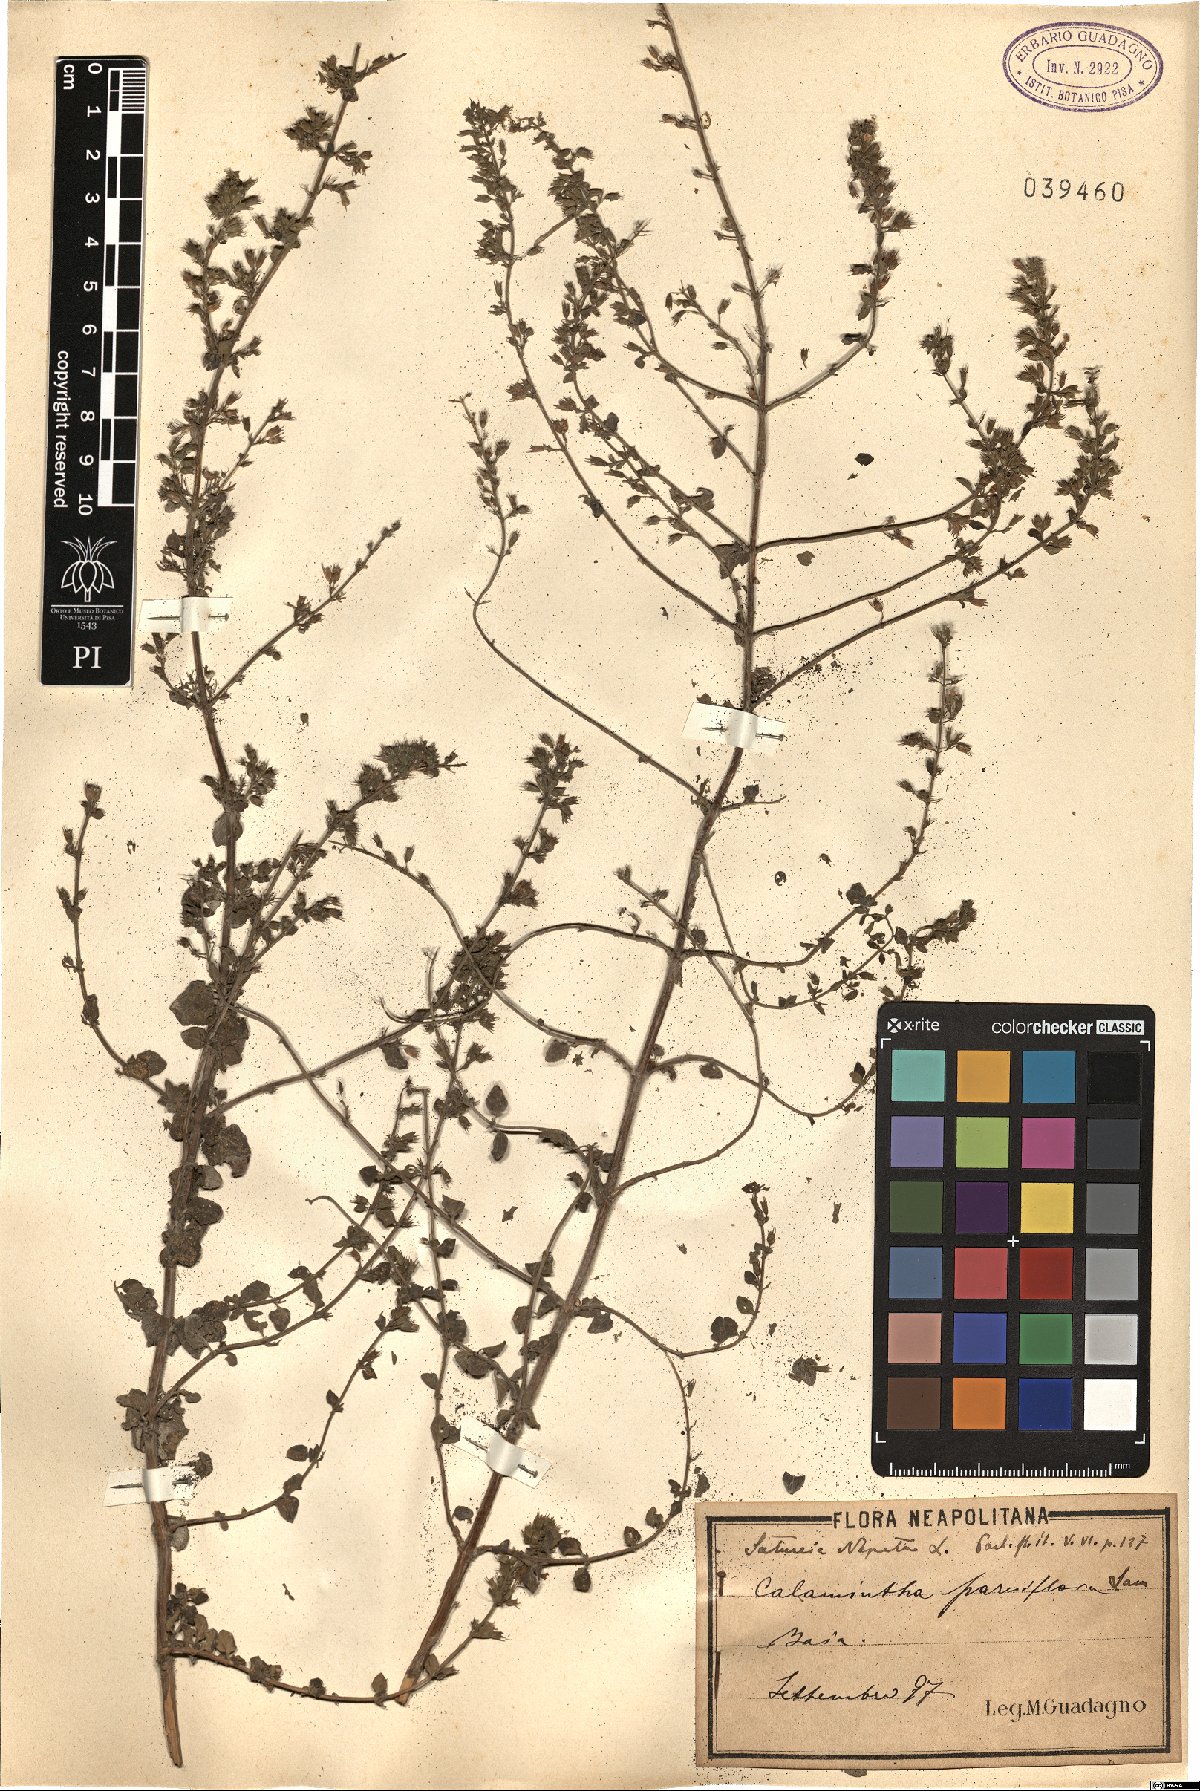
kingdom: Plantae
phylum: Tracheophyta
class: Magnoliopsida
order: Lamiales
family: Lamiaceae
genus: Clinopodium
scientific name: Clinopodium nepeta
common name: Lesser calamint
